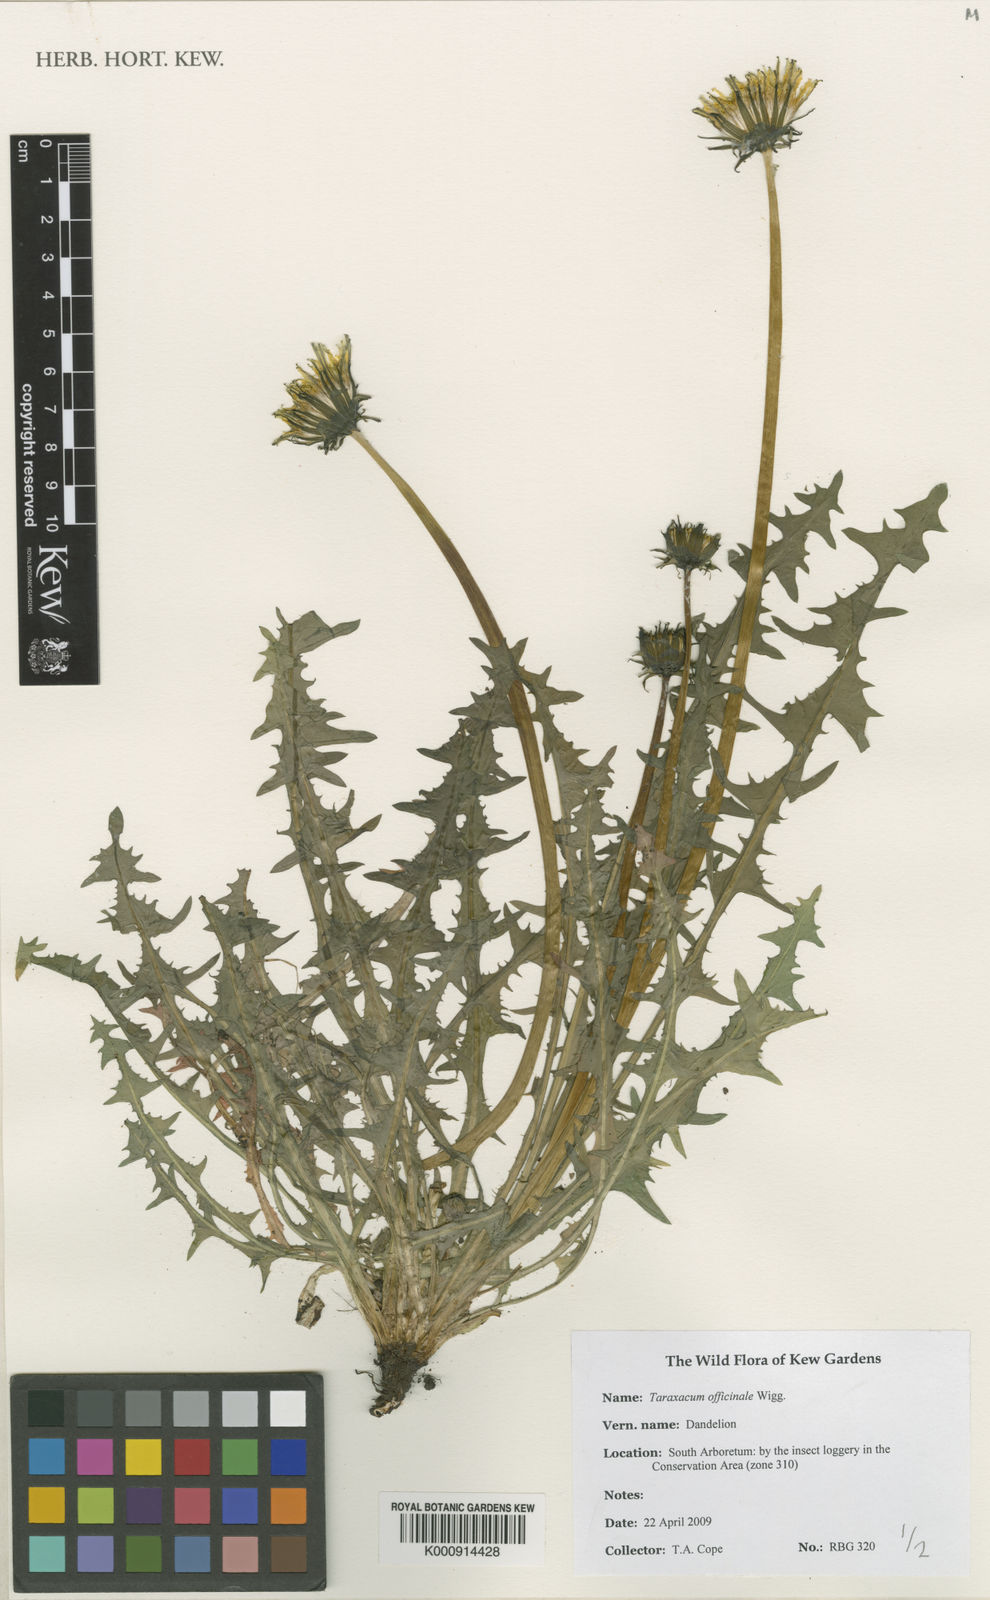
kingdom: Plantae
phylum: Tracheophyta
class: Magnoliopsida
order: Asterales
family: Asteraceae
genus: Taraxacum
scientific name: Taraxacum officinale
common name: Common dandelion
